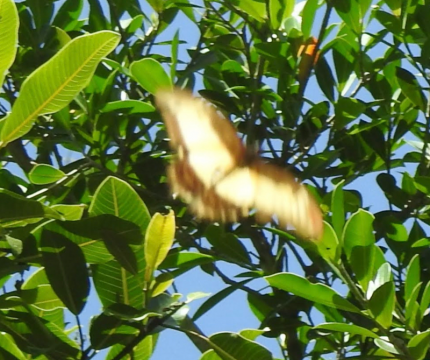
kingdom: Animalia
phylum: Arthropoda
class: Insecta
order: Lepidoptera
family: Papilionidae
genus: Papilio
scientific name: Papilio astyalus
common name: Broad-banded Swallowtail
